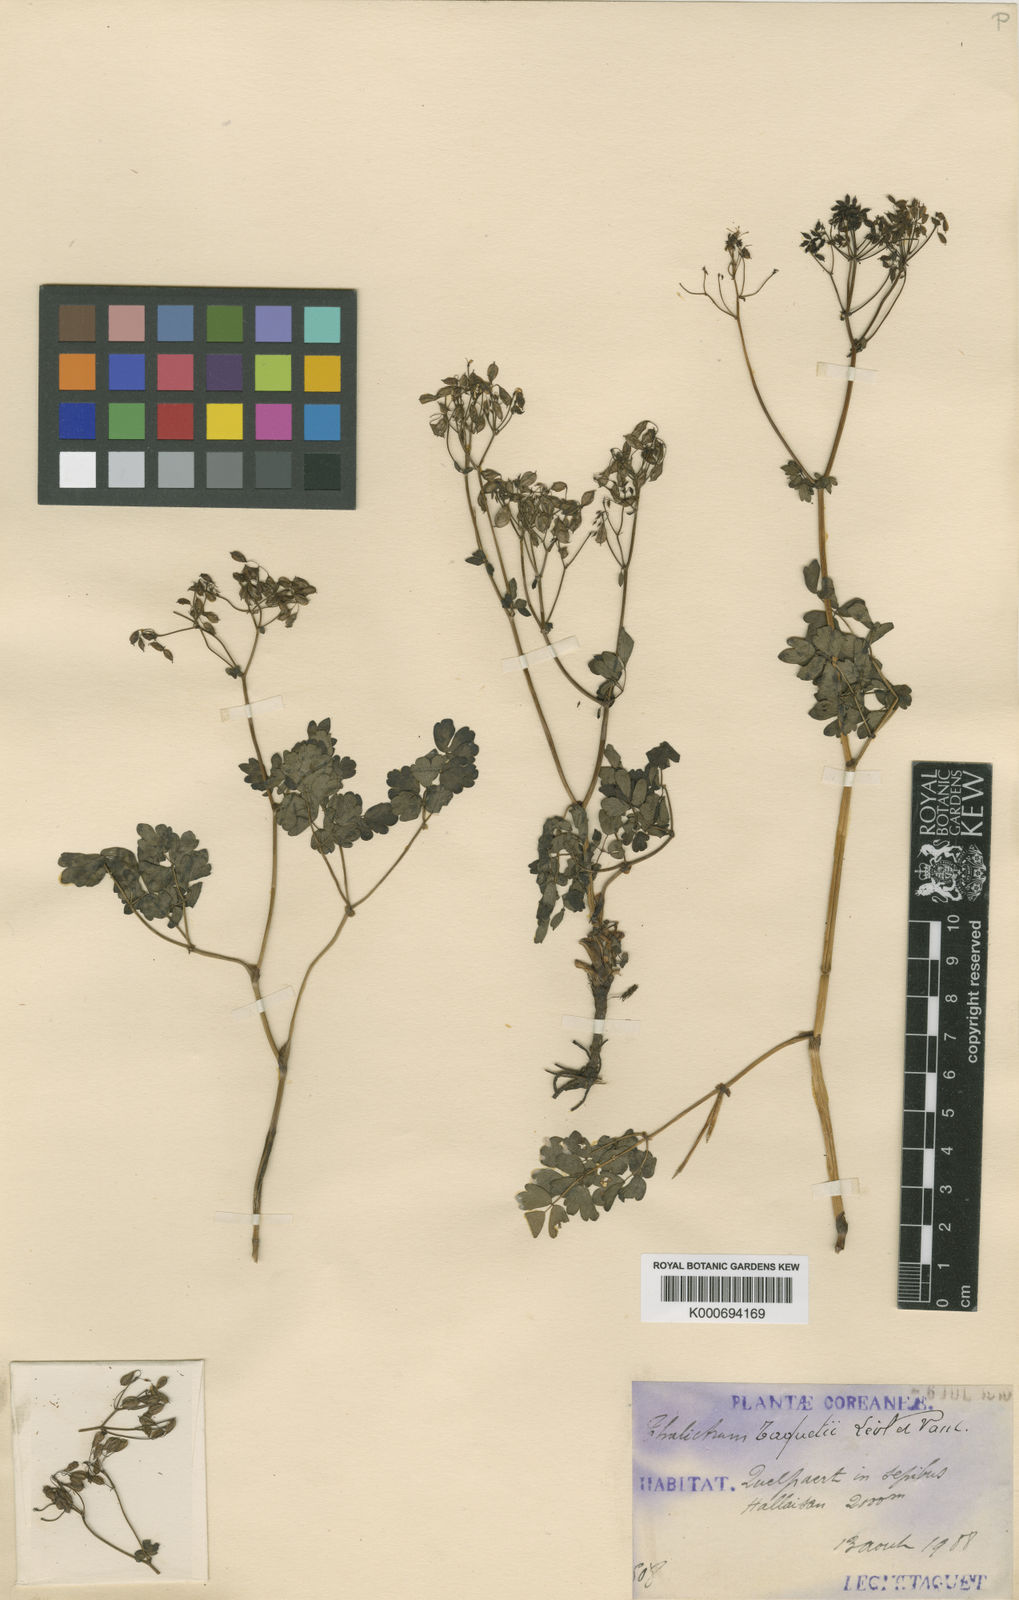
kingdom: Plantae
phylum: Tracheophyta
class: Magnoliopsida
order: Ranunculales
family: Ranunculaceae
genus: Thalictrum
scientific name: Thalictrum
